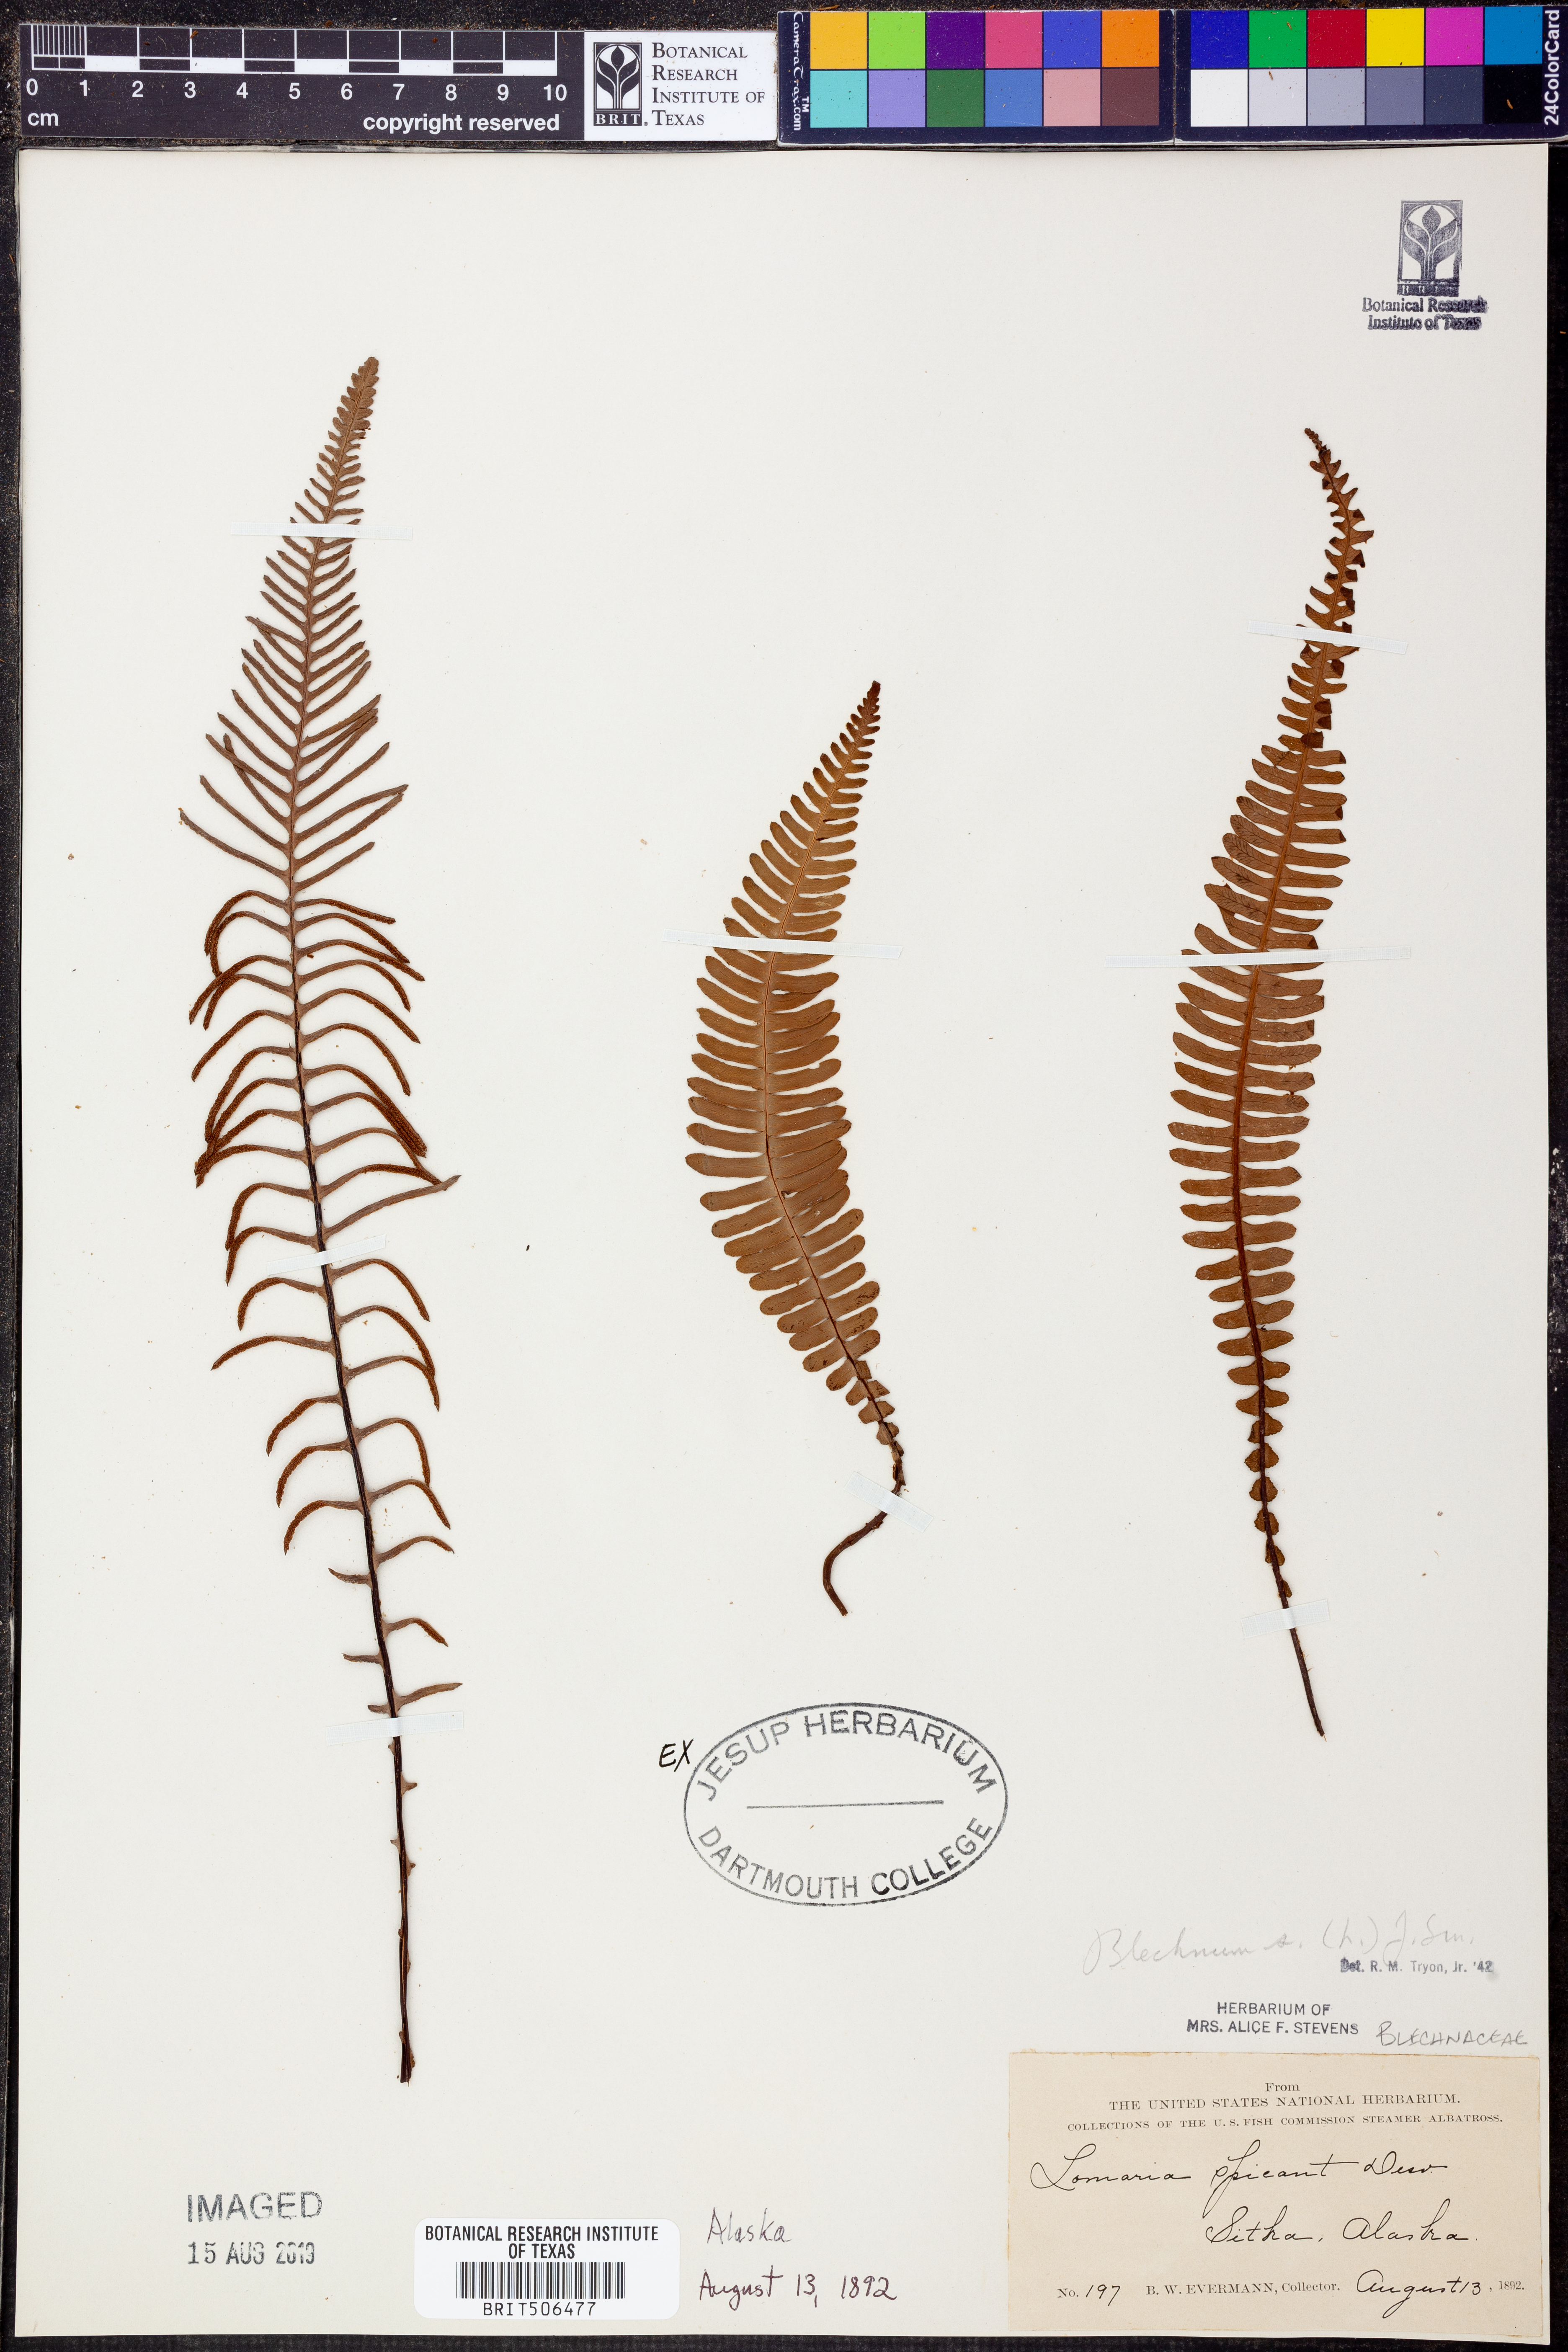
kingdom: Plantae
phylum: Tracheophyta
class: Polypodiopsida
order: Polypodiales
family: Blechnaceae
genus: Struthiopteris
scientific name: Struthiopteris spicant
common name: Deer fern
